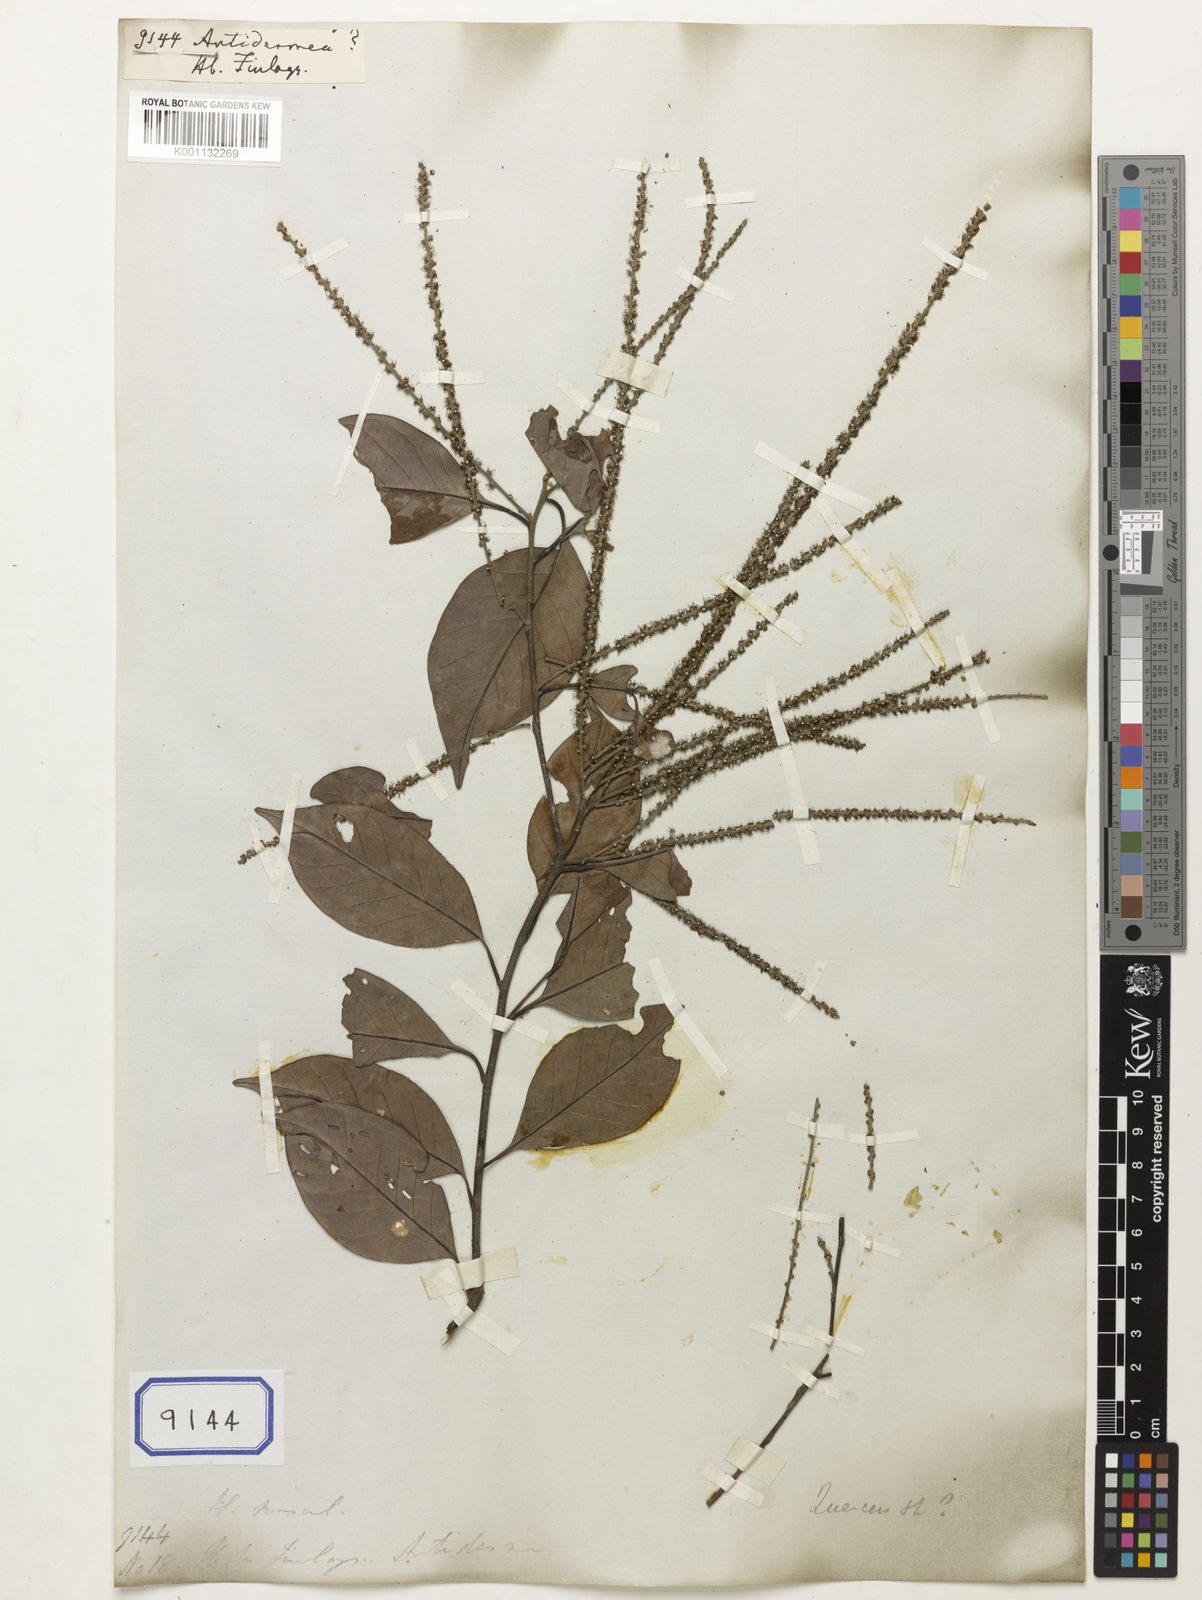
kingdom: Plantae
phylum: Tracheophyta
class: Magnoliopsida
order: Malpighiales
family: Phyllanthaceae
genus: Antidesma
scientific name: Antidesma
